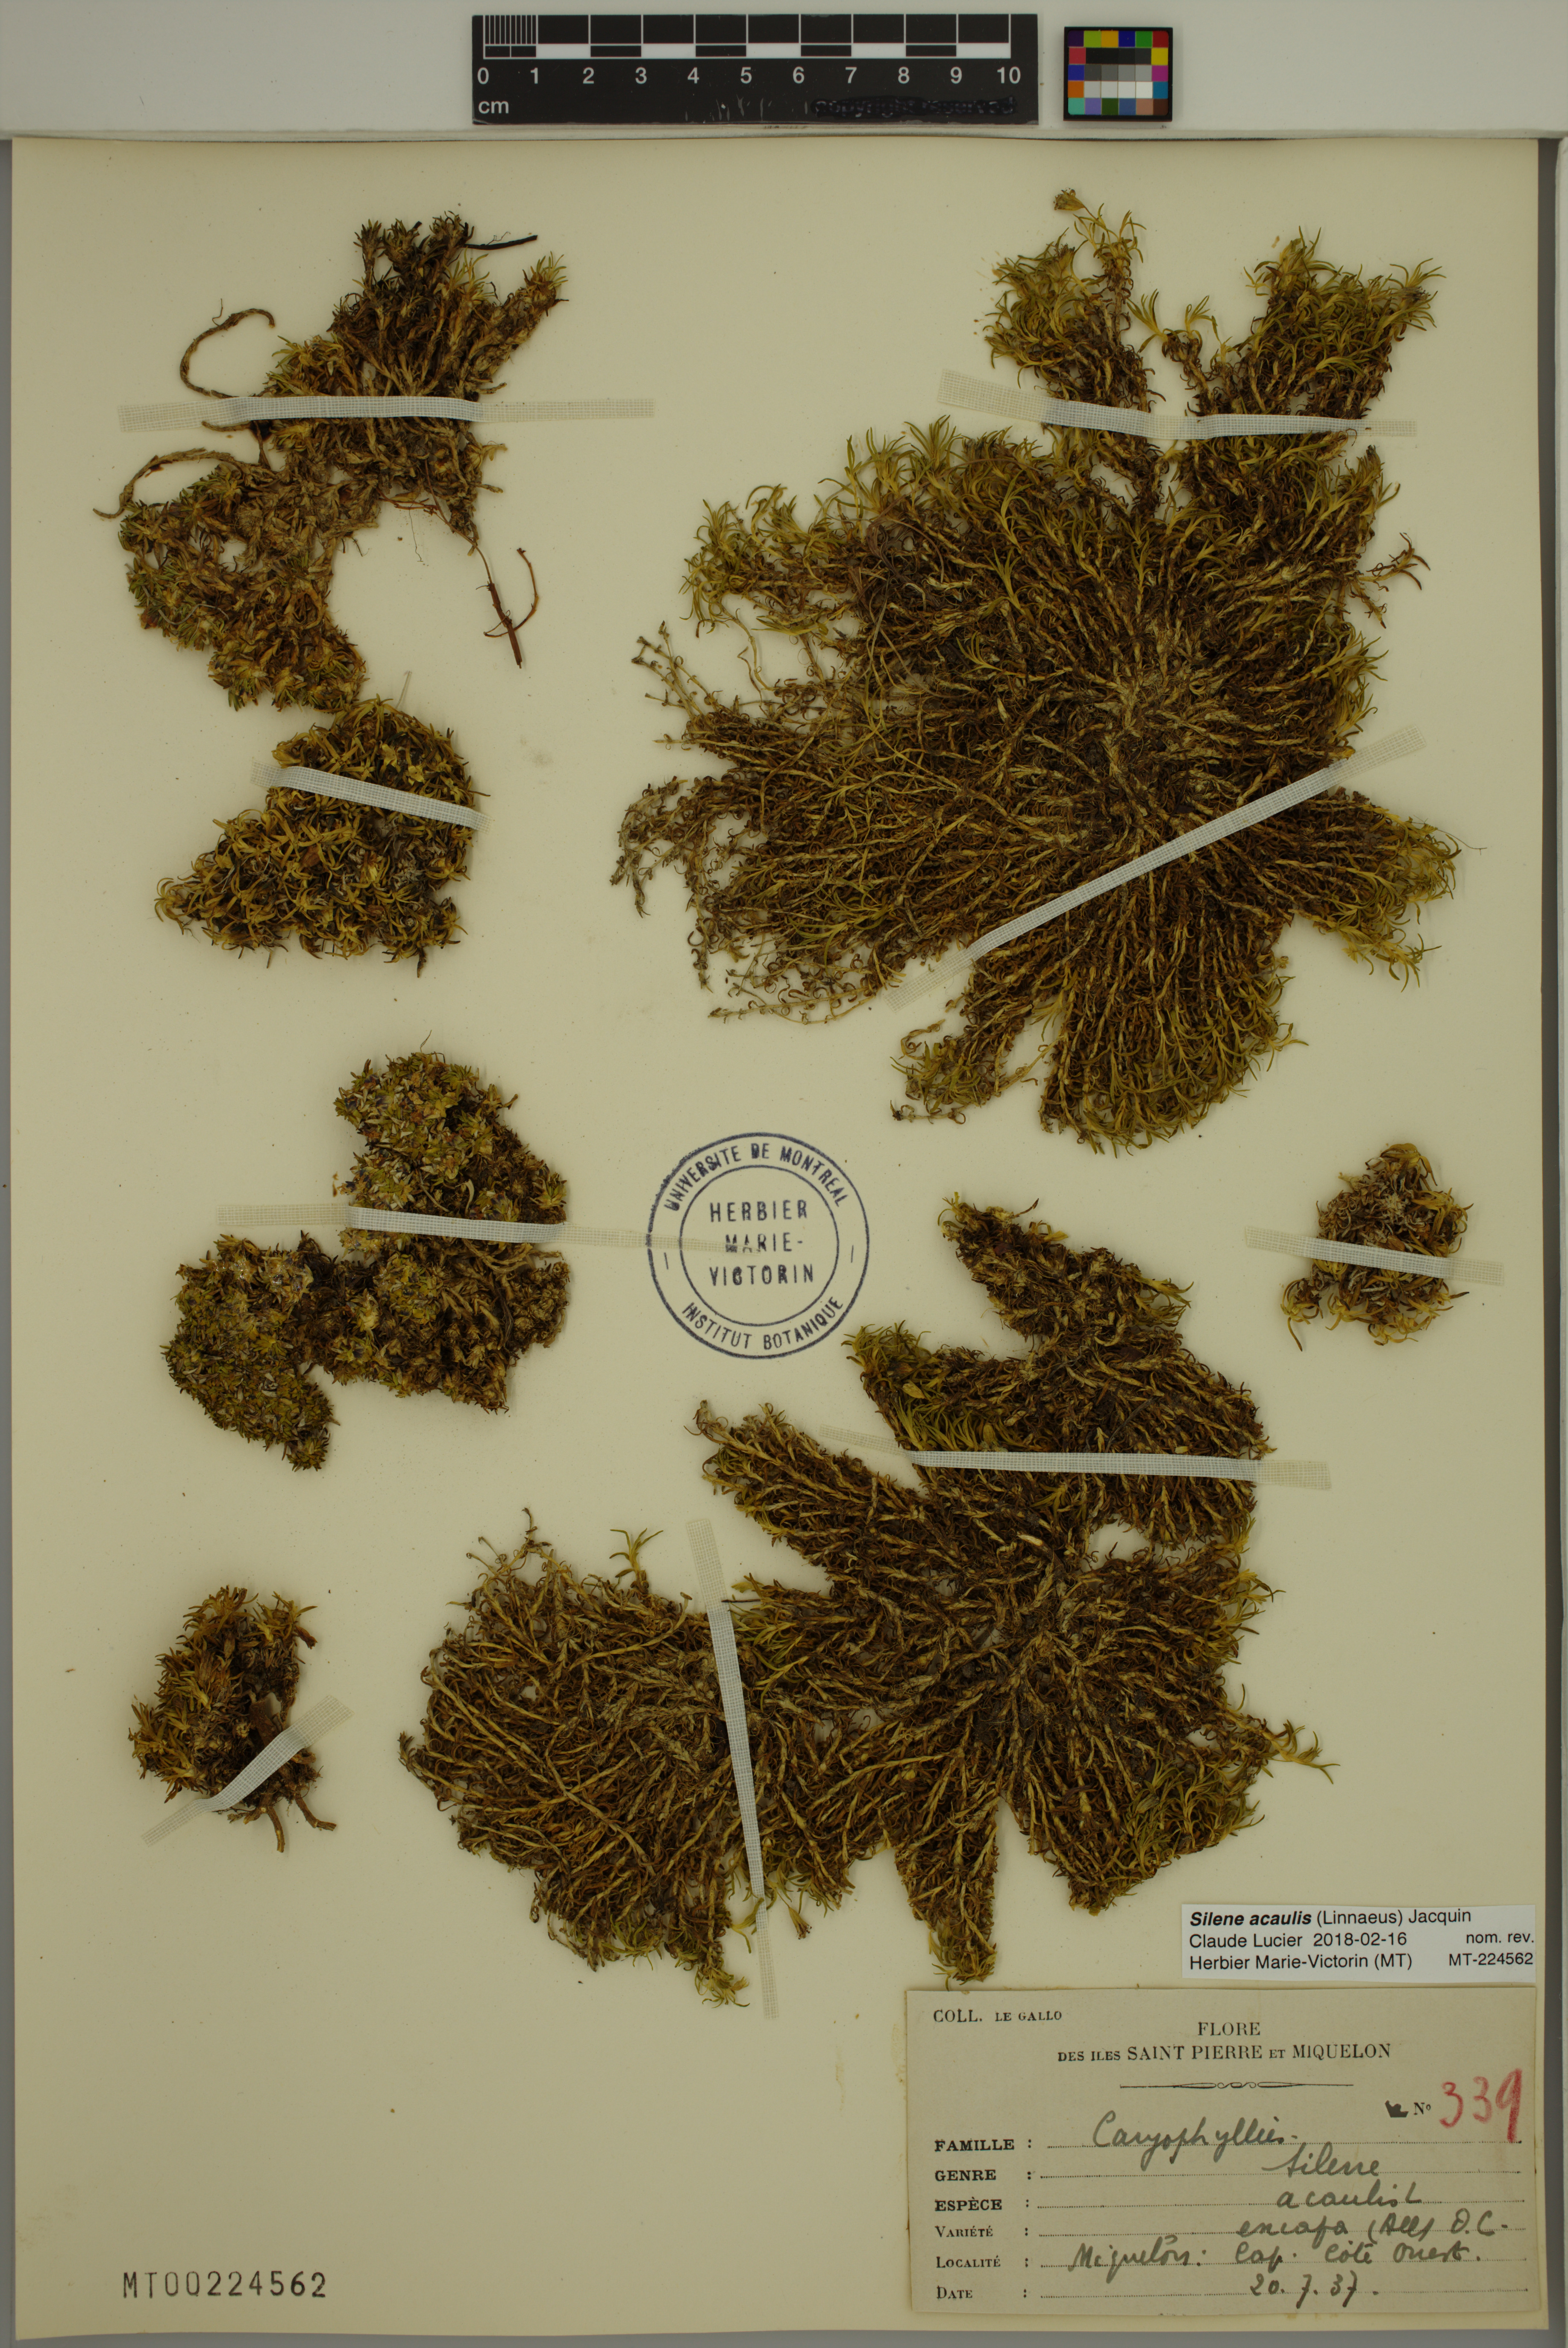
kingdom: Plantae
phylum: Tracheophyta
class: Magnoliopsida
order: Caryophyllales
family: Caryophyllaceae
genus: Silene
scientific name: Silene acaulis
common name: Moss campion
